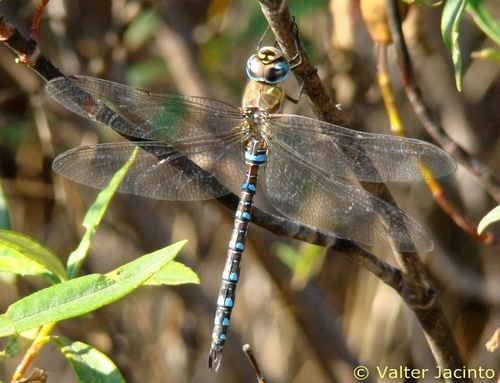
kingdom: Animalia
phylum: Arthropoda
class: Insecta
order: Odonata
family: Aeshnidae
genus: Aeshna
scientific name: Aeshna mixta
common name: Migrant hawker
